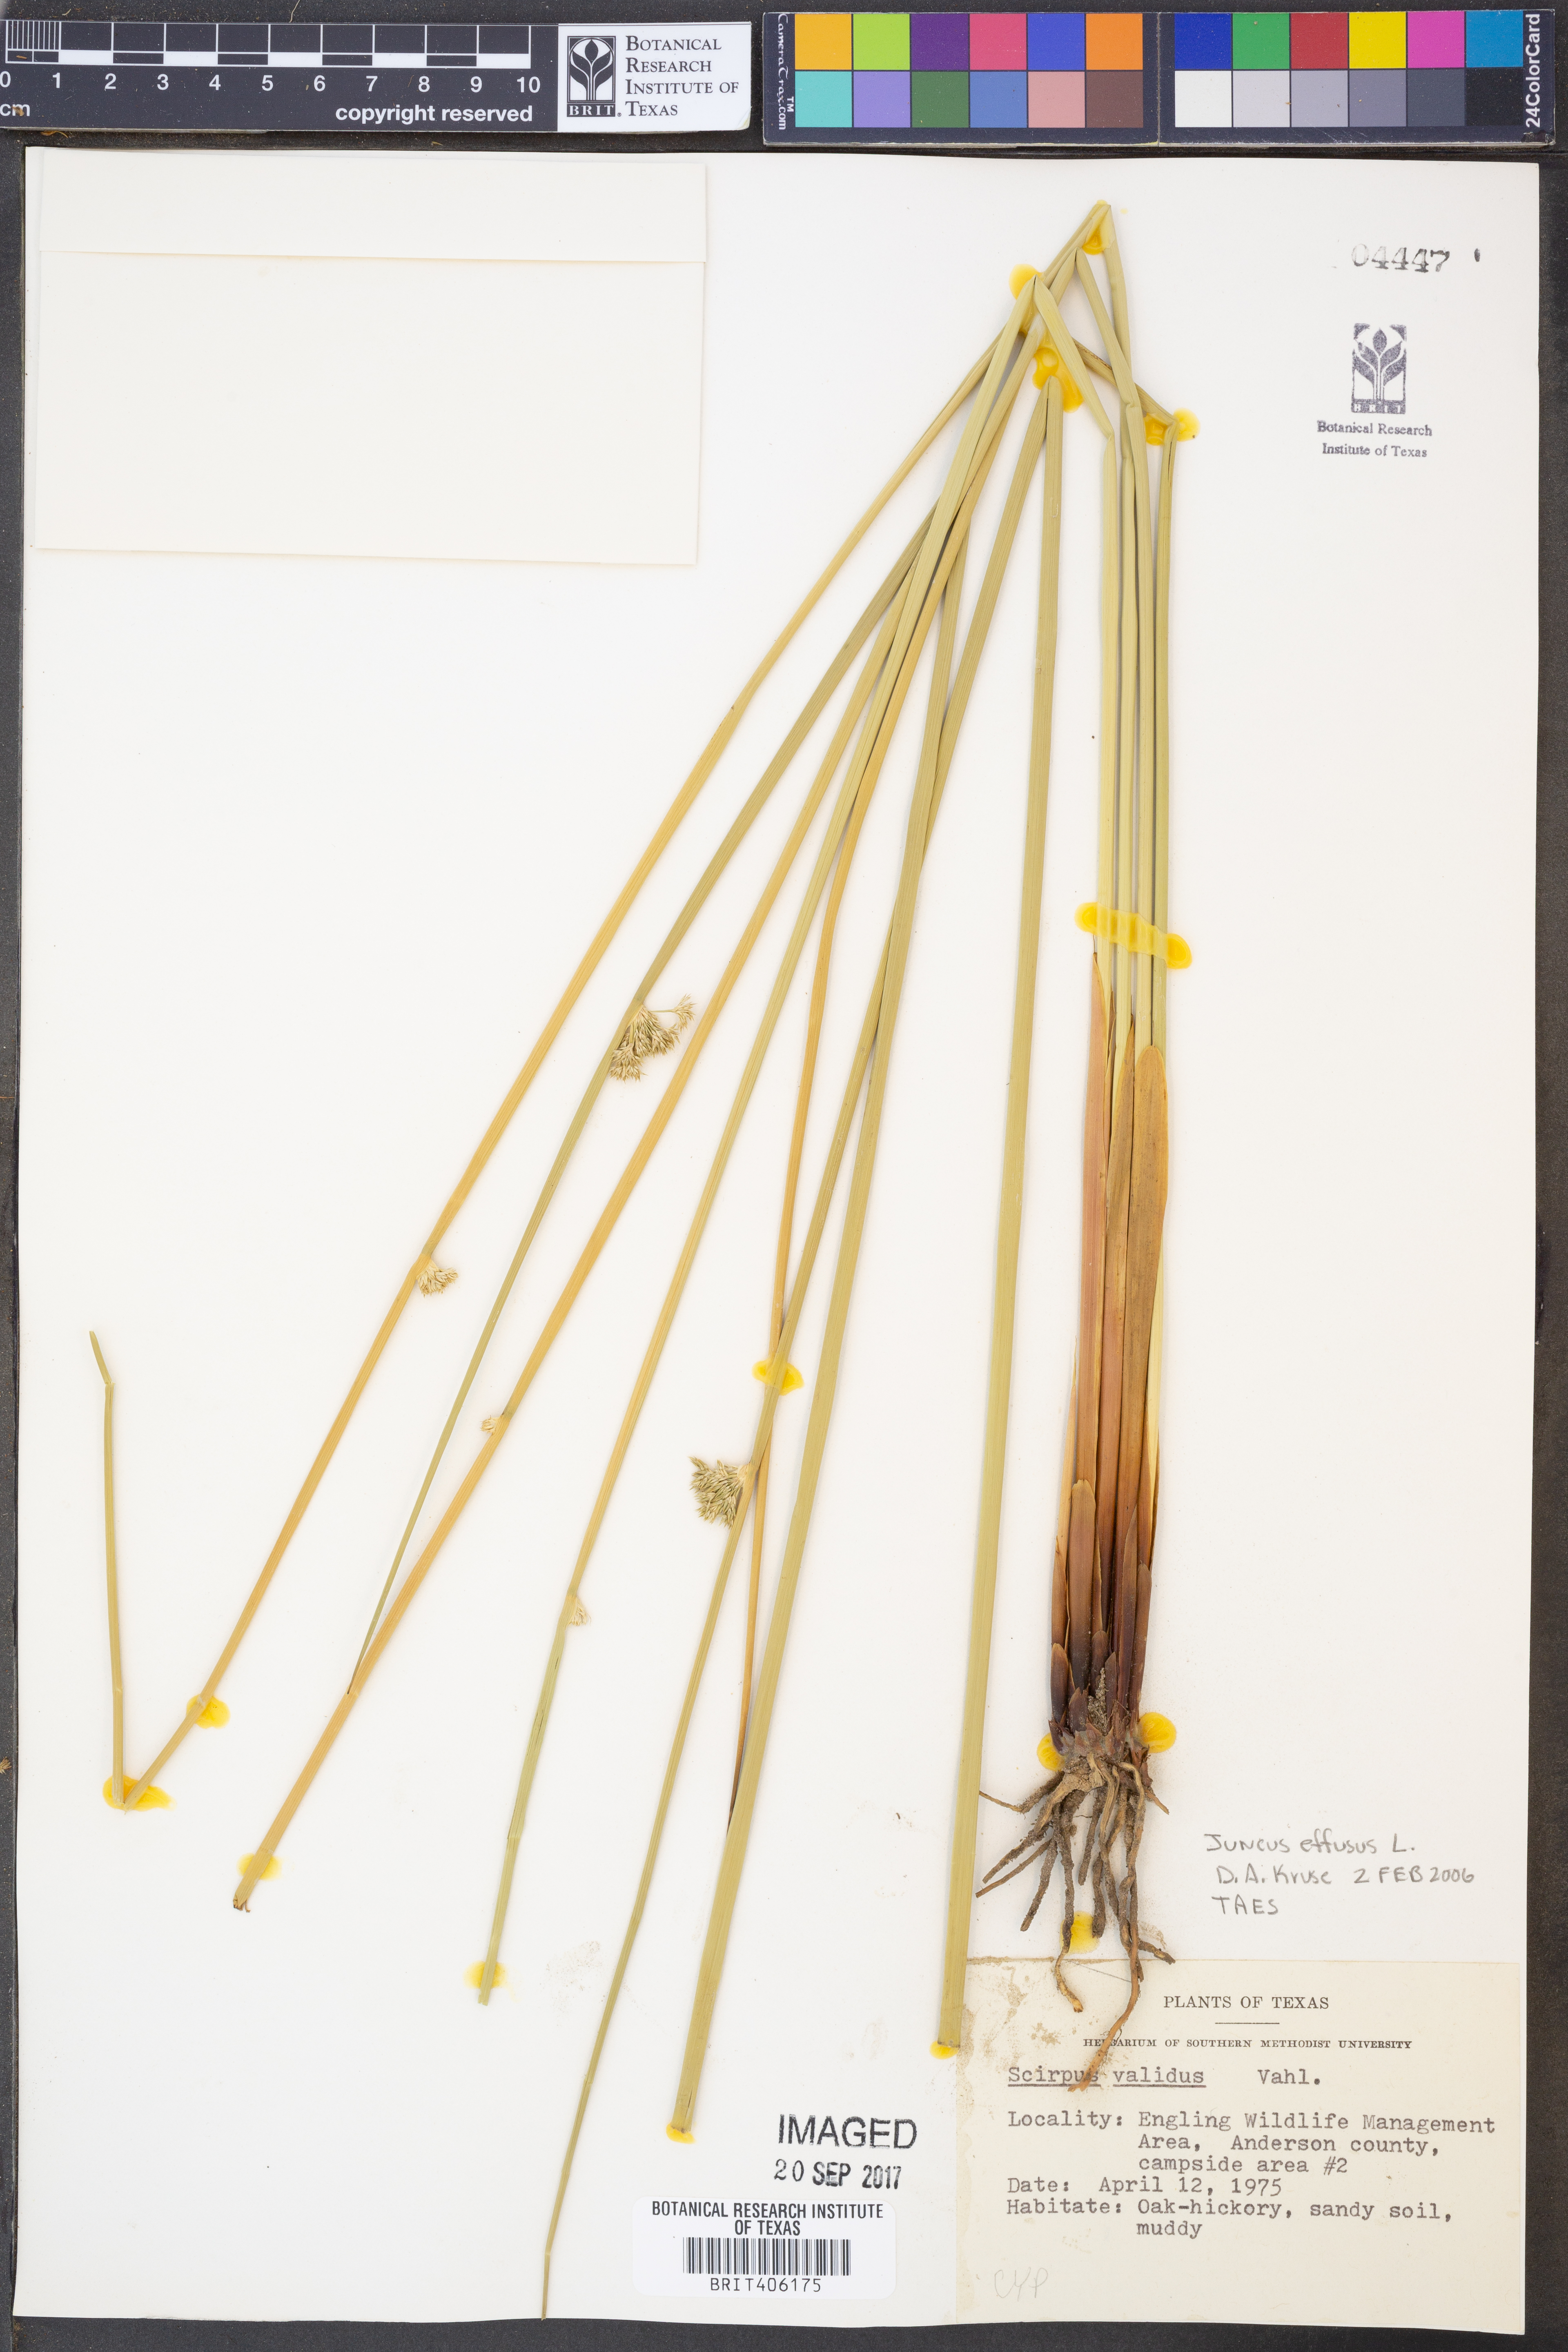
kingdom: Plantae
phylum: Tracheophyta
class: Liliopsida
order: Poales
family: Juncaceae
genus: Juncus
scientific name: Juncus effusus
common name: Soft rush
